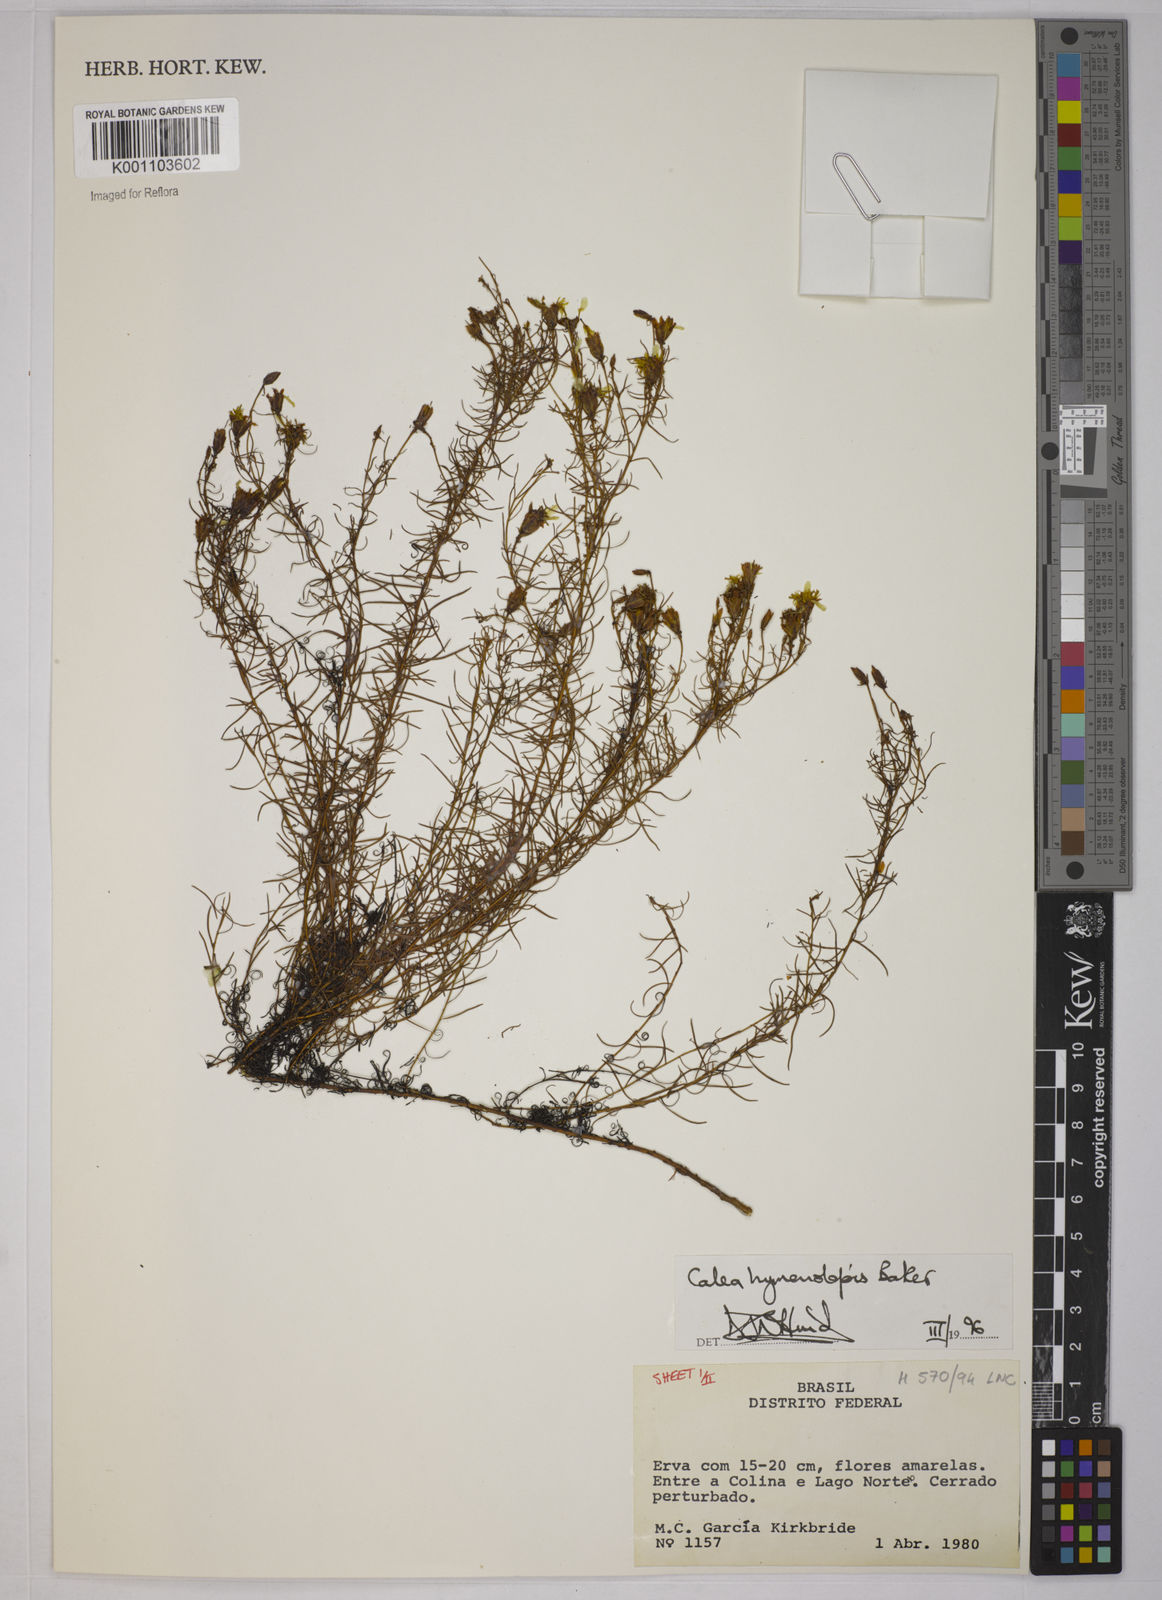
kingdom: Plantae
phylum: Tracheophyta
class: Magnoliopsida
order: Asterales
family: Asteraceae
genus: Calea
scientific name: Calea hymenolepis
